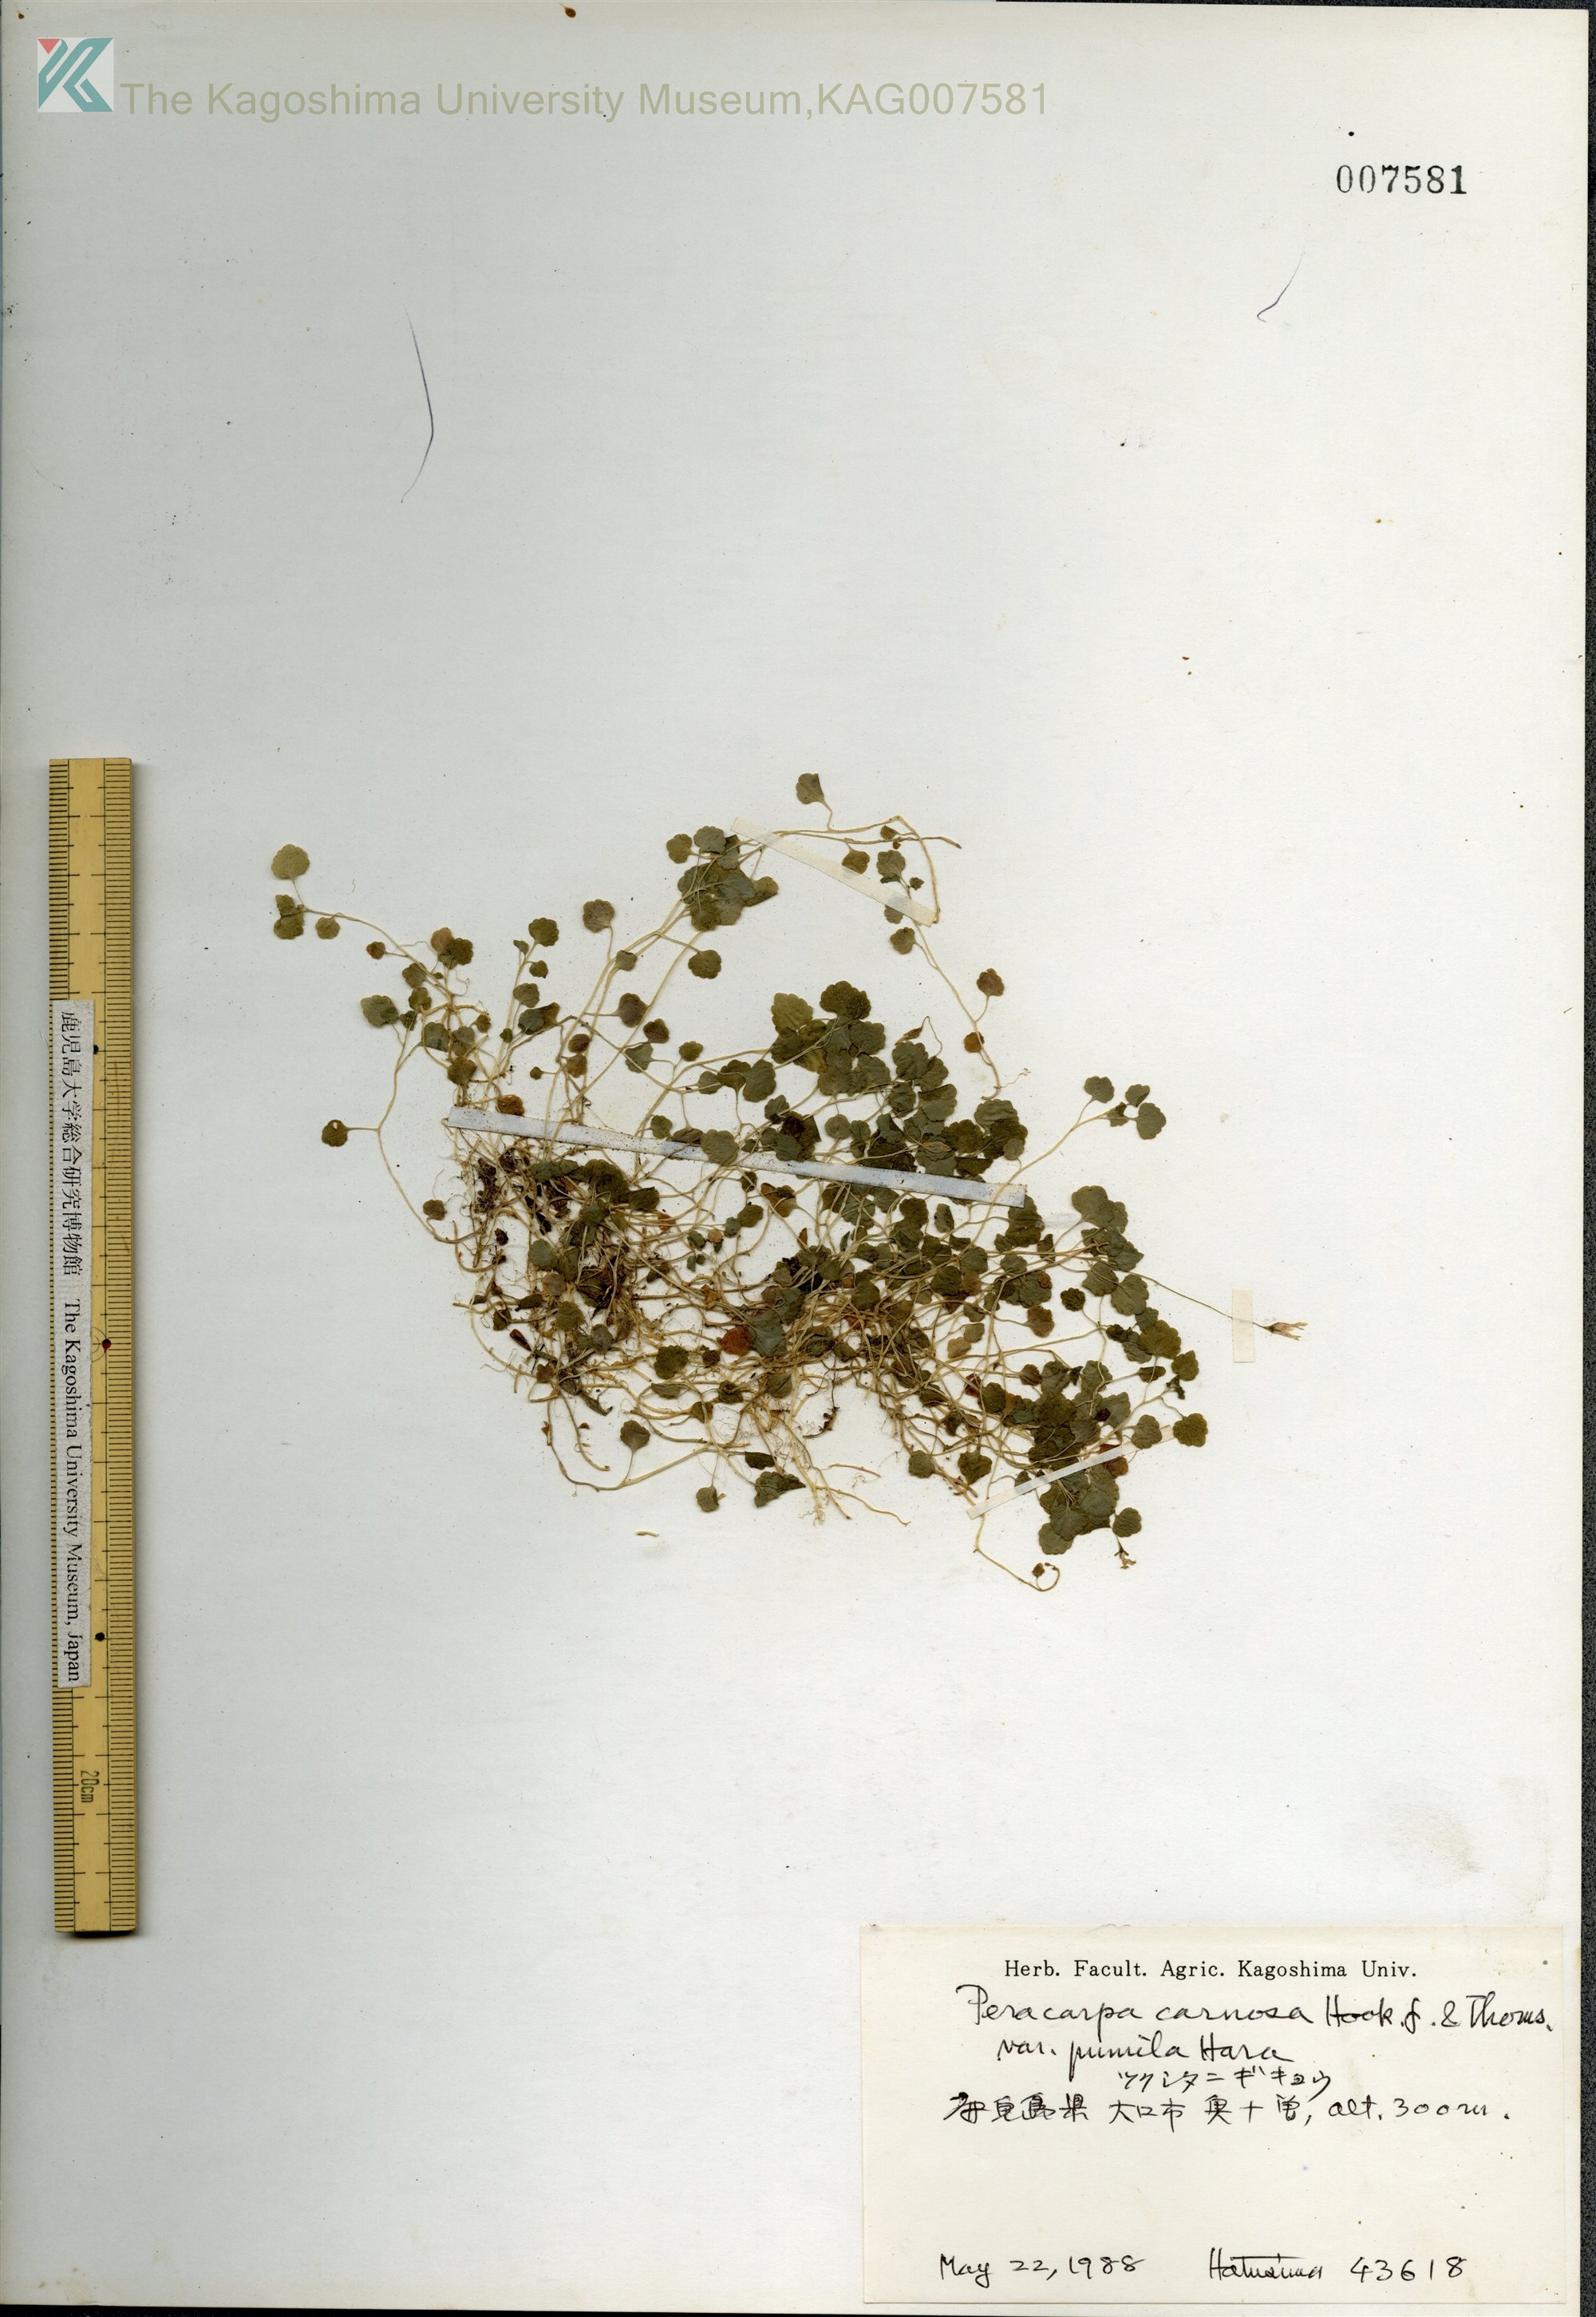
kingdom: Plantae
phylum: Tracheophyta
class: Magnoliopsida
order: Asterales
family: Campanulaceae
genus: Peracarpa
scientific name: Peracarpa carnosa
